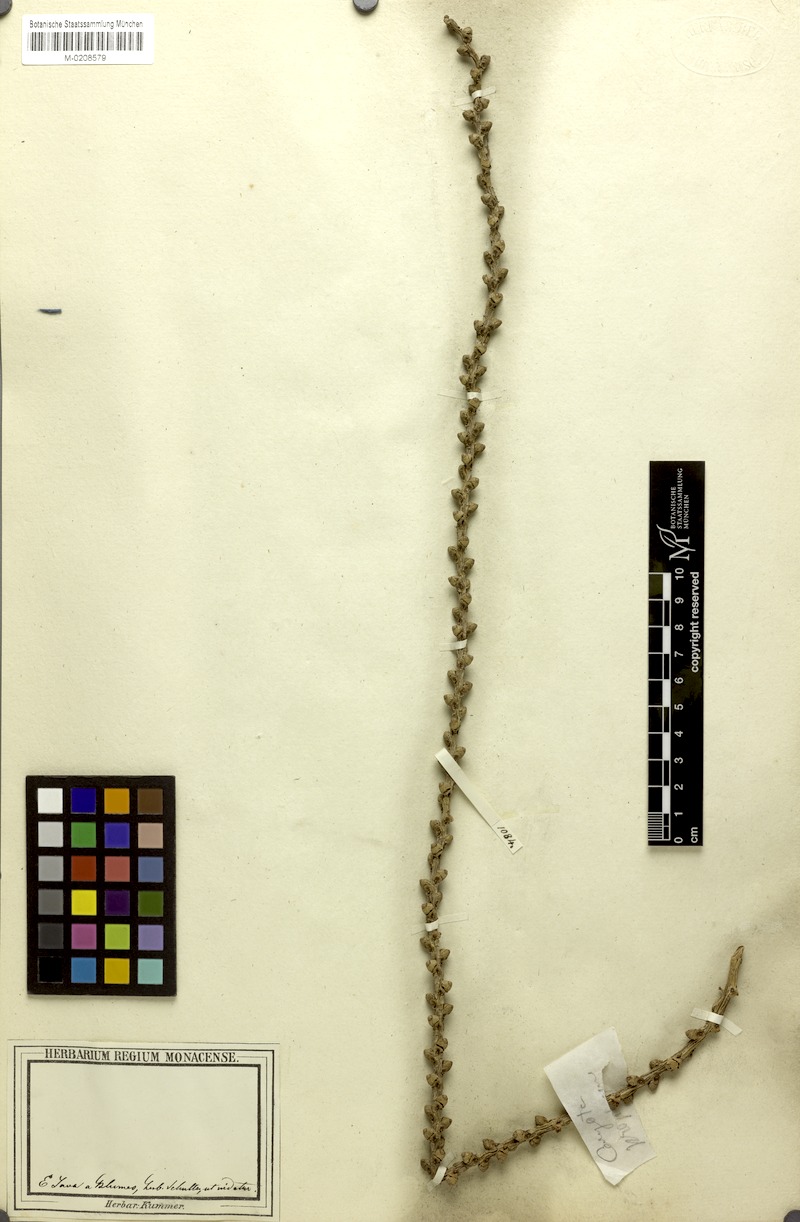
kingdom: Plantae
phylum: Tracheophyta
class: Liliopsida
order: Arecales
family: Arecaceae
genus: Caryota
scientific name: Caryota mitis
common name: Burmese fishtail palm
